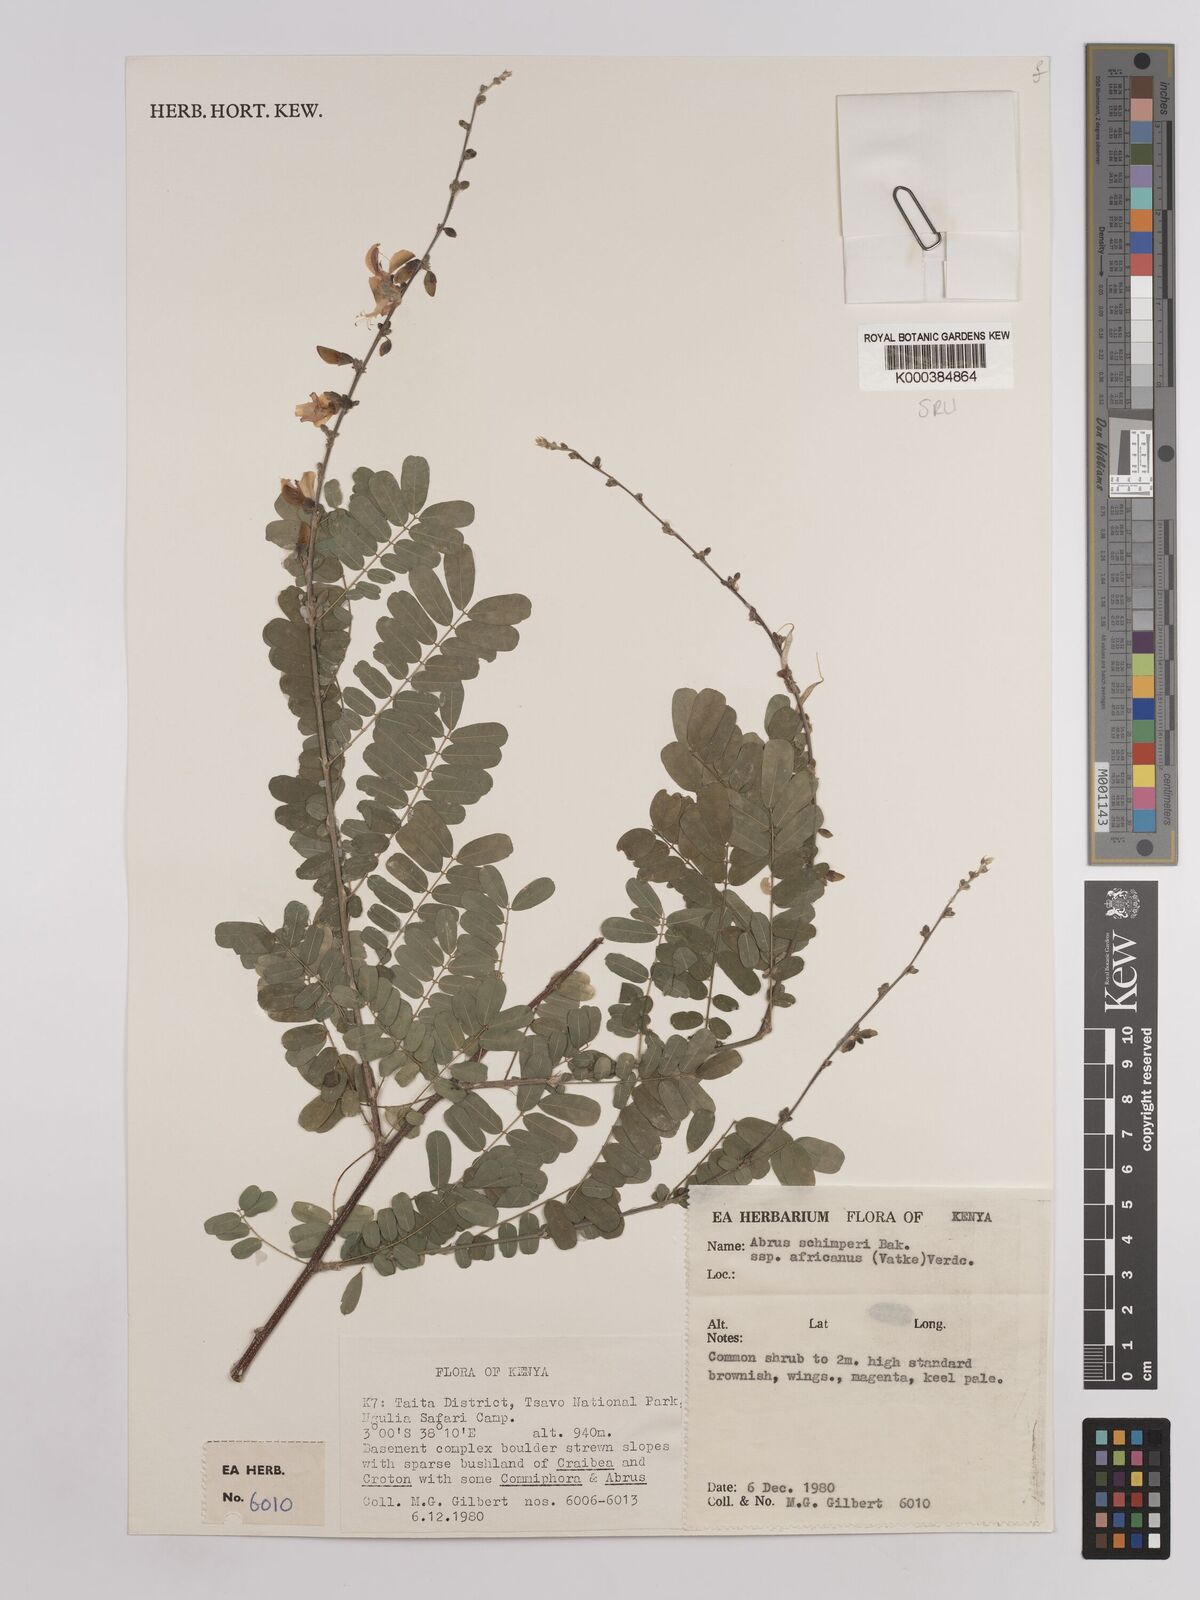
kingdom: Plantae
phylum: Tracheophyta
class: Magnoliopsida
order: Fabales
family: Fabaceae
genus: Abrus
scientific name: Abrus fruticulosus
